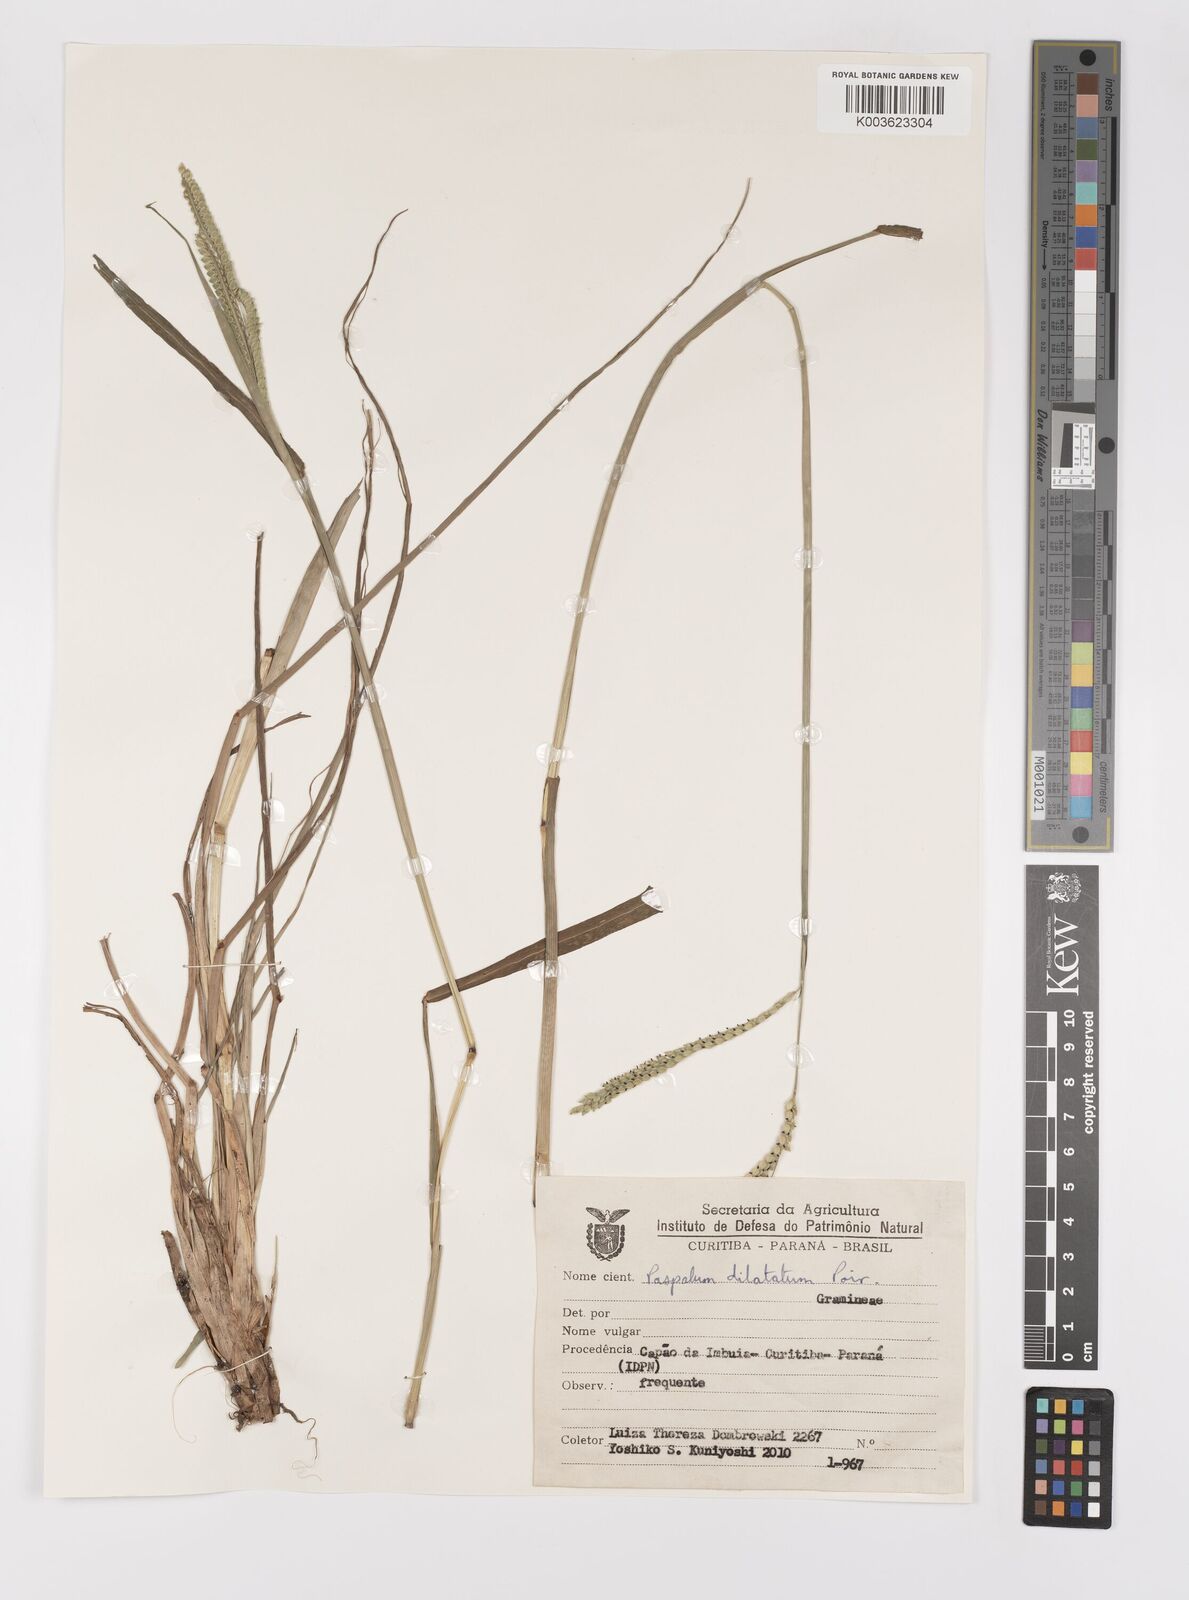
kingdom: Plantae
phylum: Tracheophyta
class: Liliopsida
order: Poales
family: Poaceae
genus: Paspalum
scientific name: Paspalum dilatatum
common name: Dallisgrass
